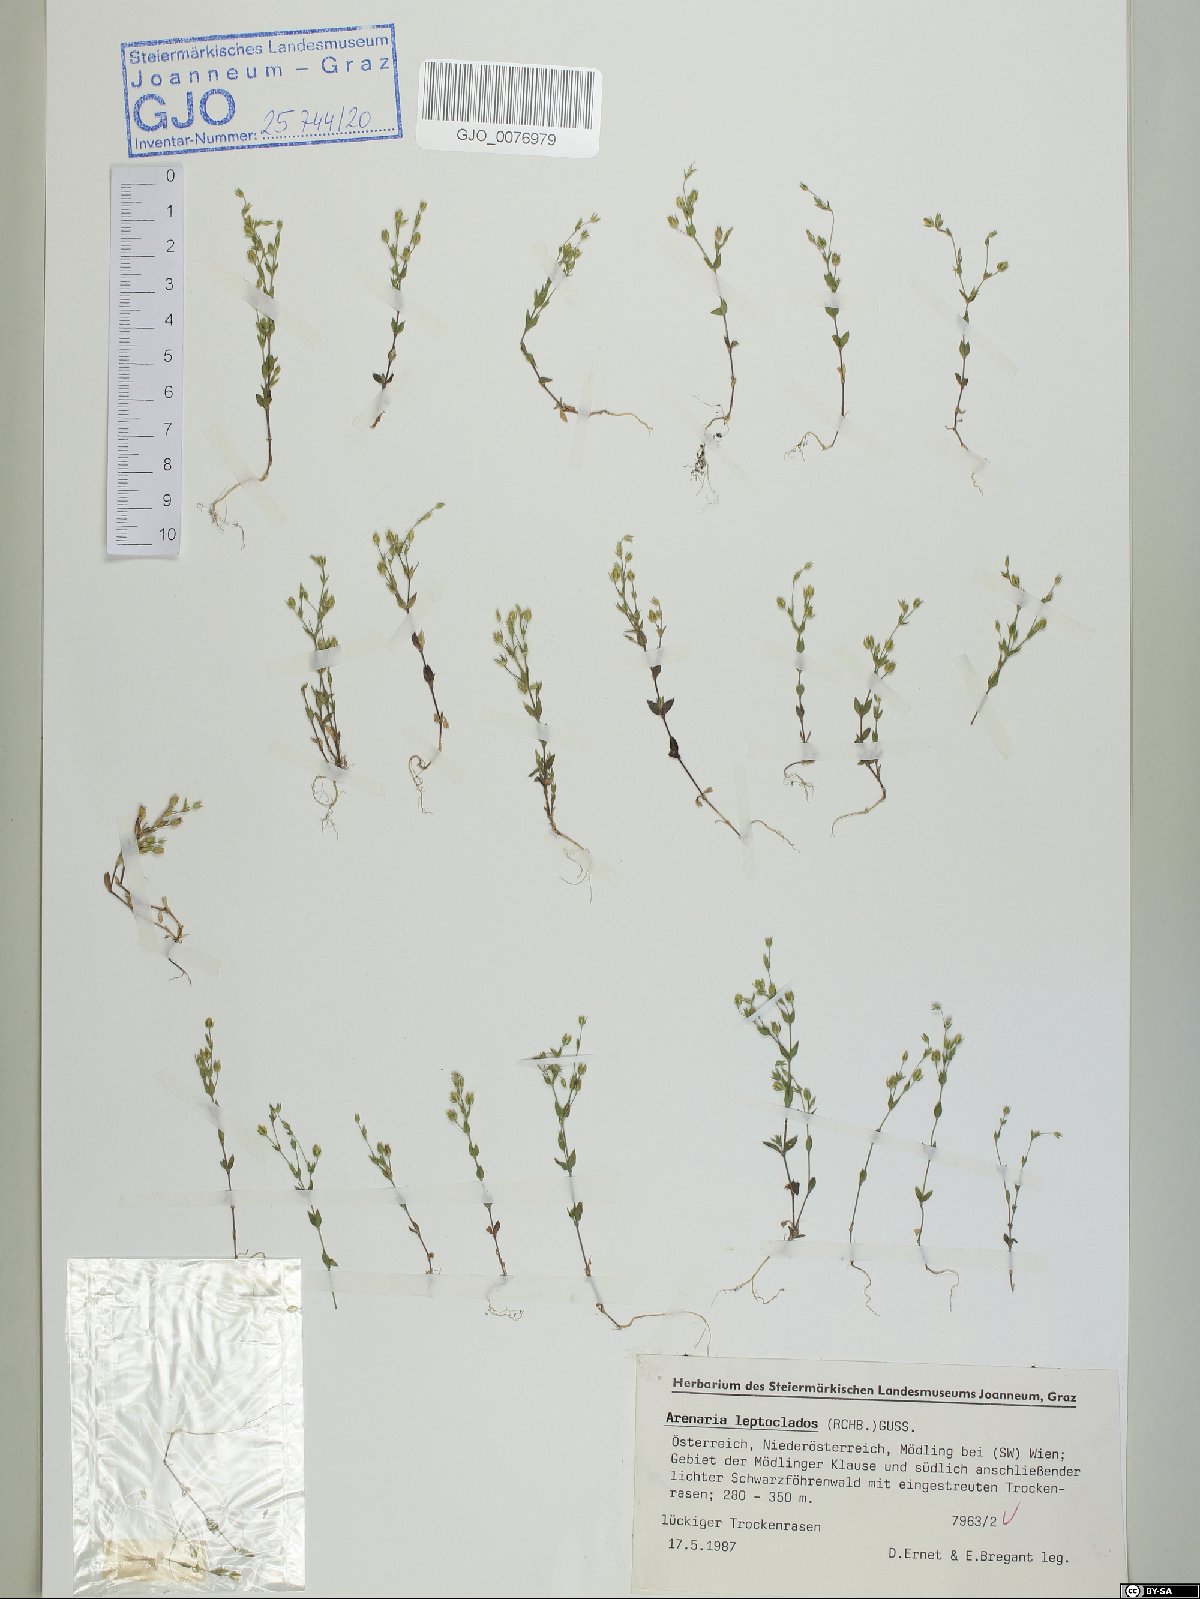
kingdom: Plantae
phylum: Tracheophyta
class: Magnoliopsida
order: Caryophyllales
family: Caryophyllaceae
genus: Arenaria
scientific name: Arenaria leptoclados
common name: Thyme-leaved sandwort
